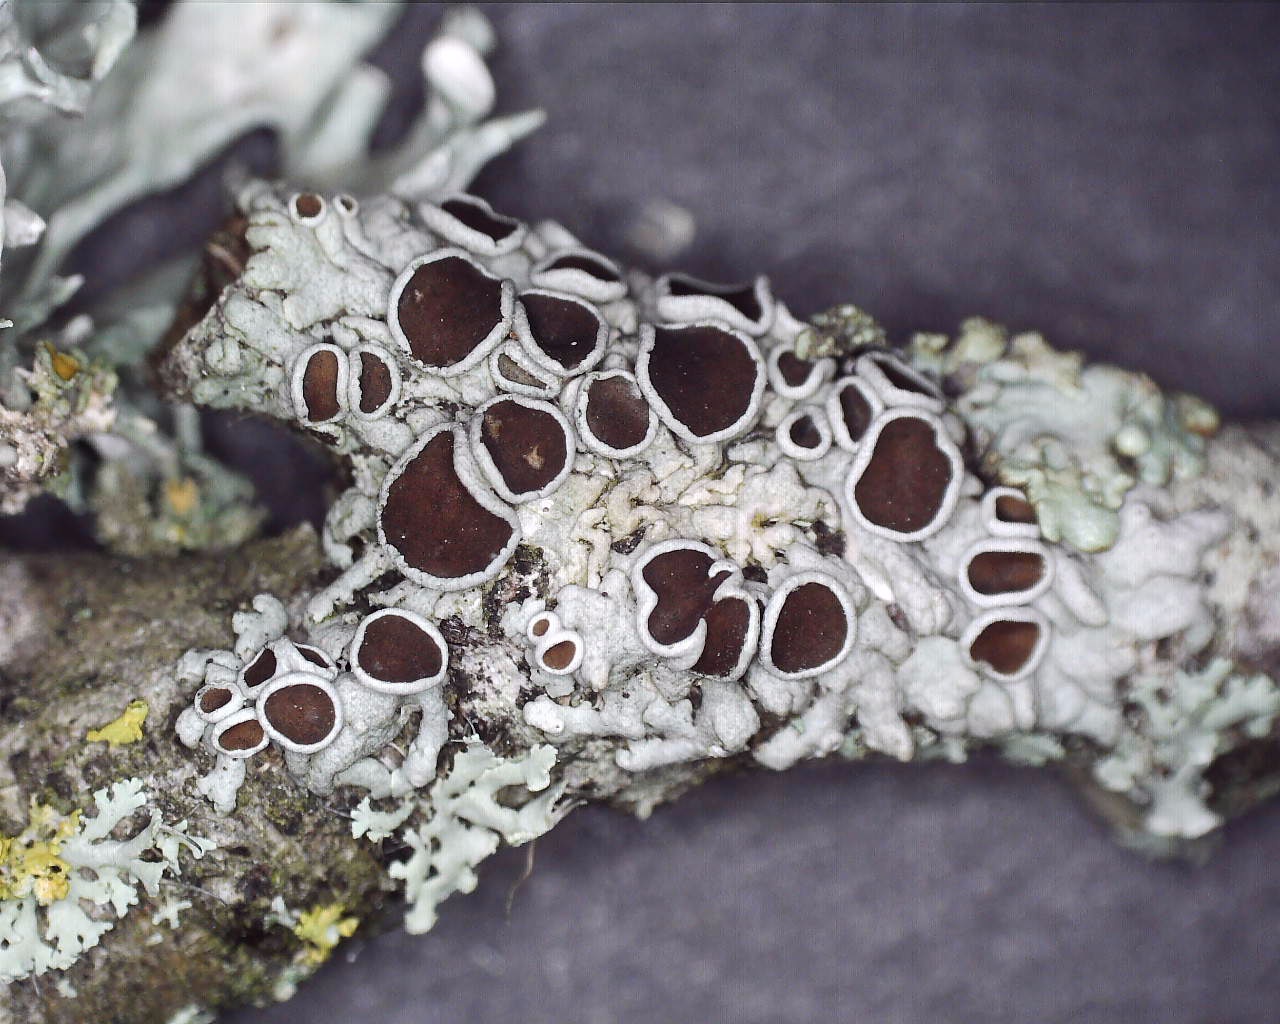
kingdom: Fungi
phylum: Ascomycota
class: Lecanoromycetes
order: Caliciales
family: Physciaceae
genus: Physcia
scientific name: Physcia stellaris
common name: stjerneformet rosetlav
